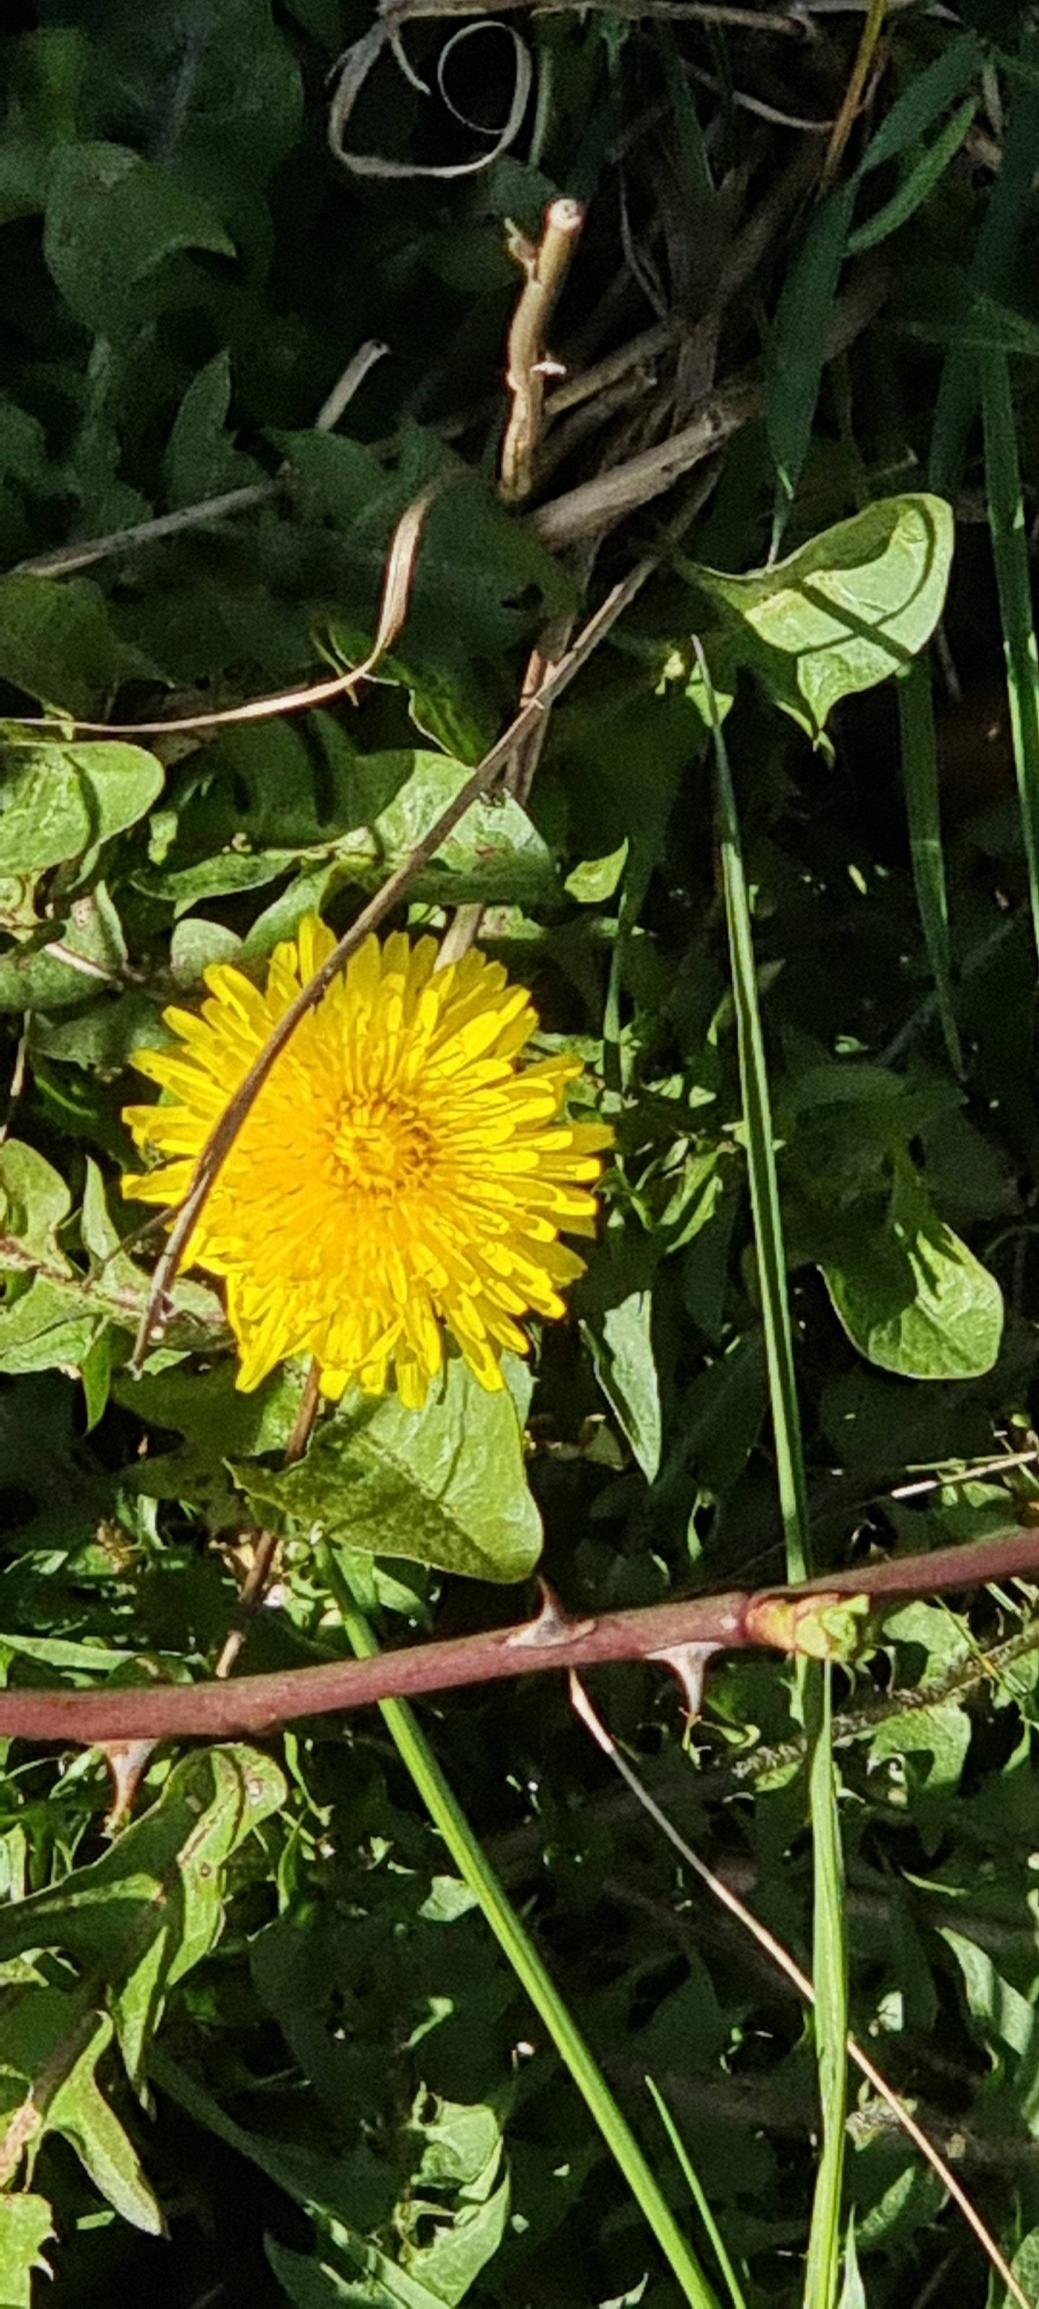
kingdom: Plantae
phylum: Tracheophyta
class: Magnoliopsida
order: Asterales
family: Asteraceae
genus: Taraxacum
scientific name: Taraxacum
